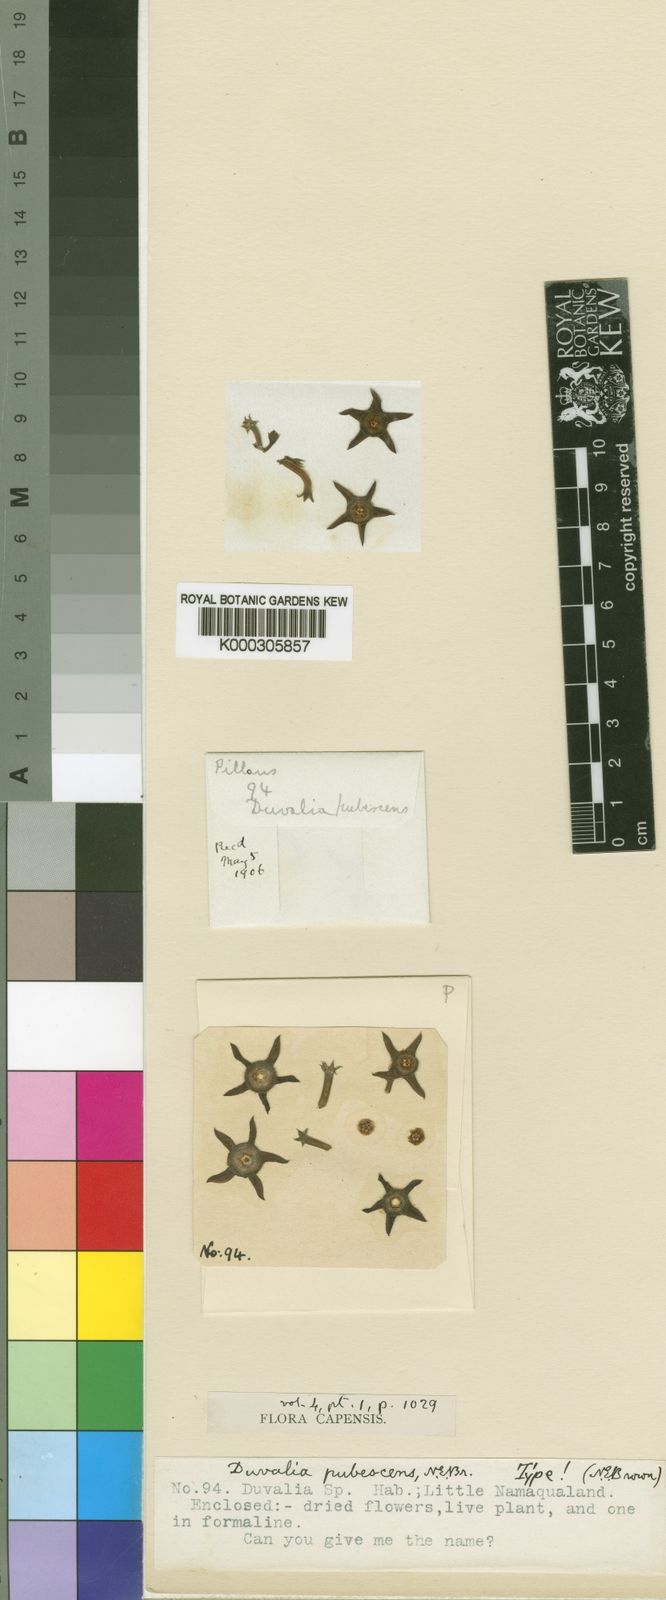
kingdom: Plantae
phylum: Tracheophyta
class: Magnoliopsida
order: Gentianales
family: Apocynaceae
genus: Ceropegia
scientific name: Ceropegia caespitosa
